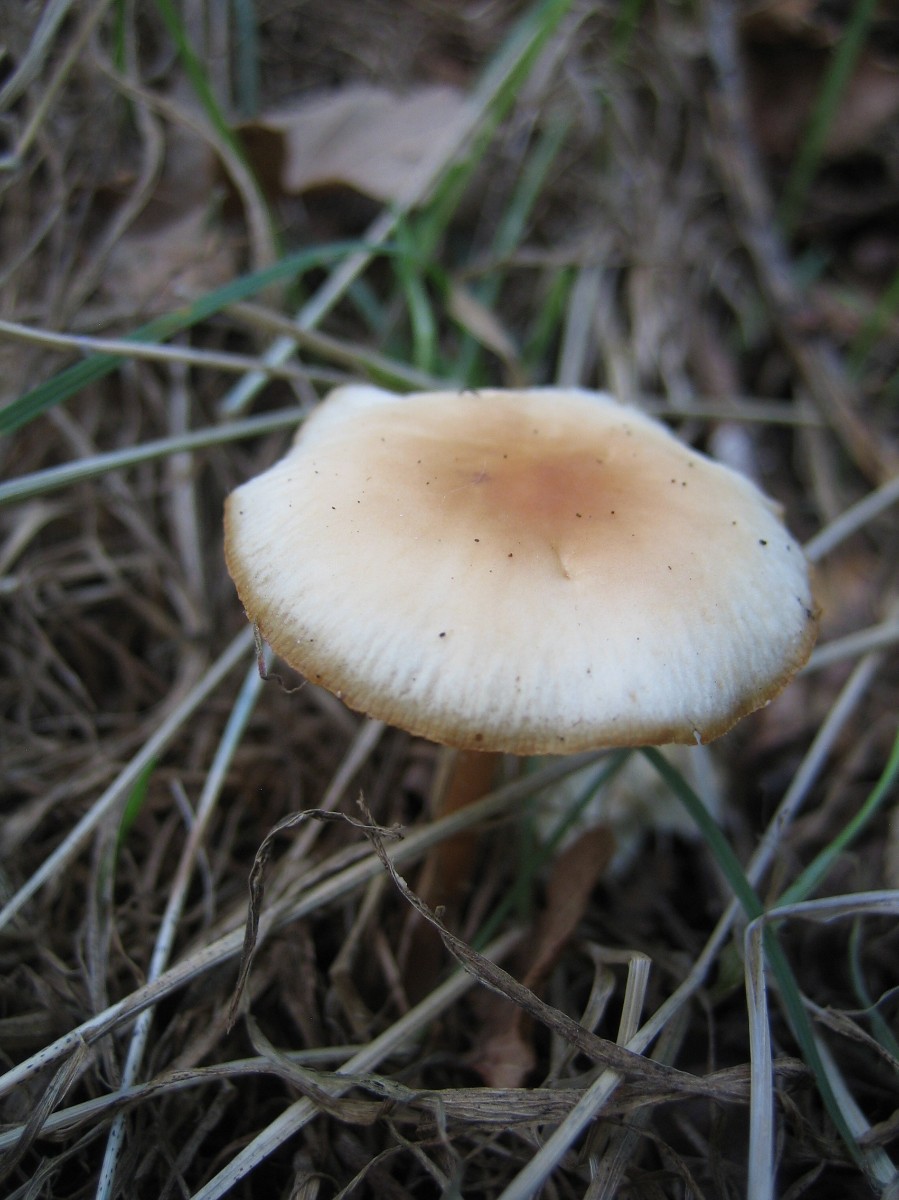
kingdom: Fungi
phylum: Basidiomycota
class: Agaricomycetes
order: Agaricales
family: Omphalotaceae
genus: Gymnopus
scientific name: Gymnopus dryophilus
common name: løv-fladhat
